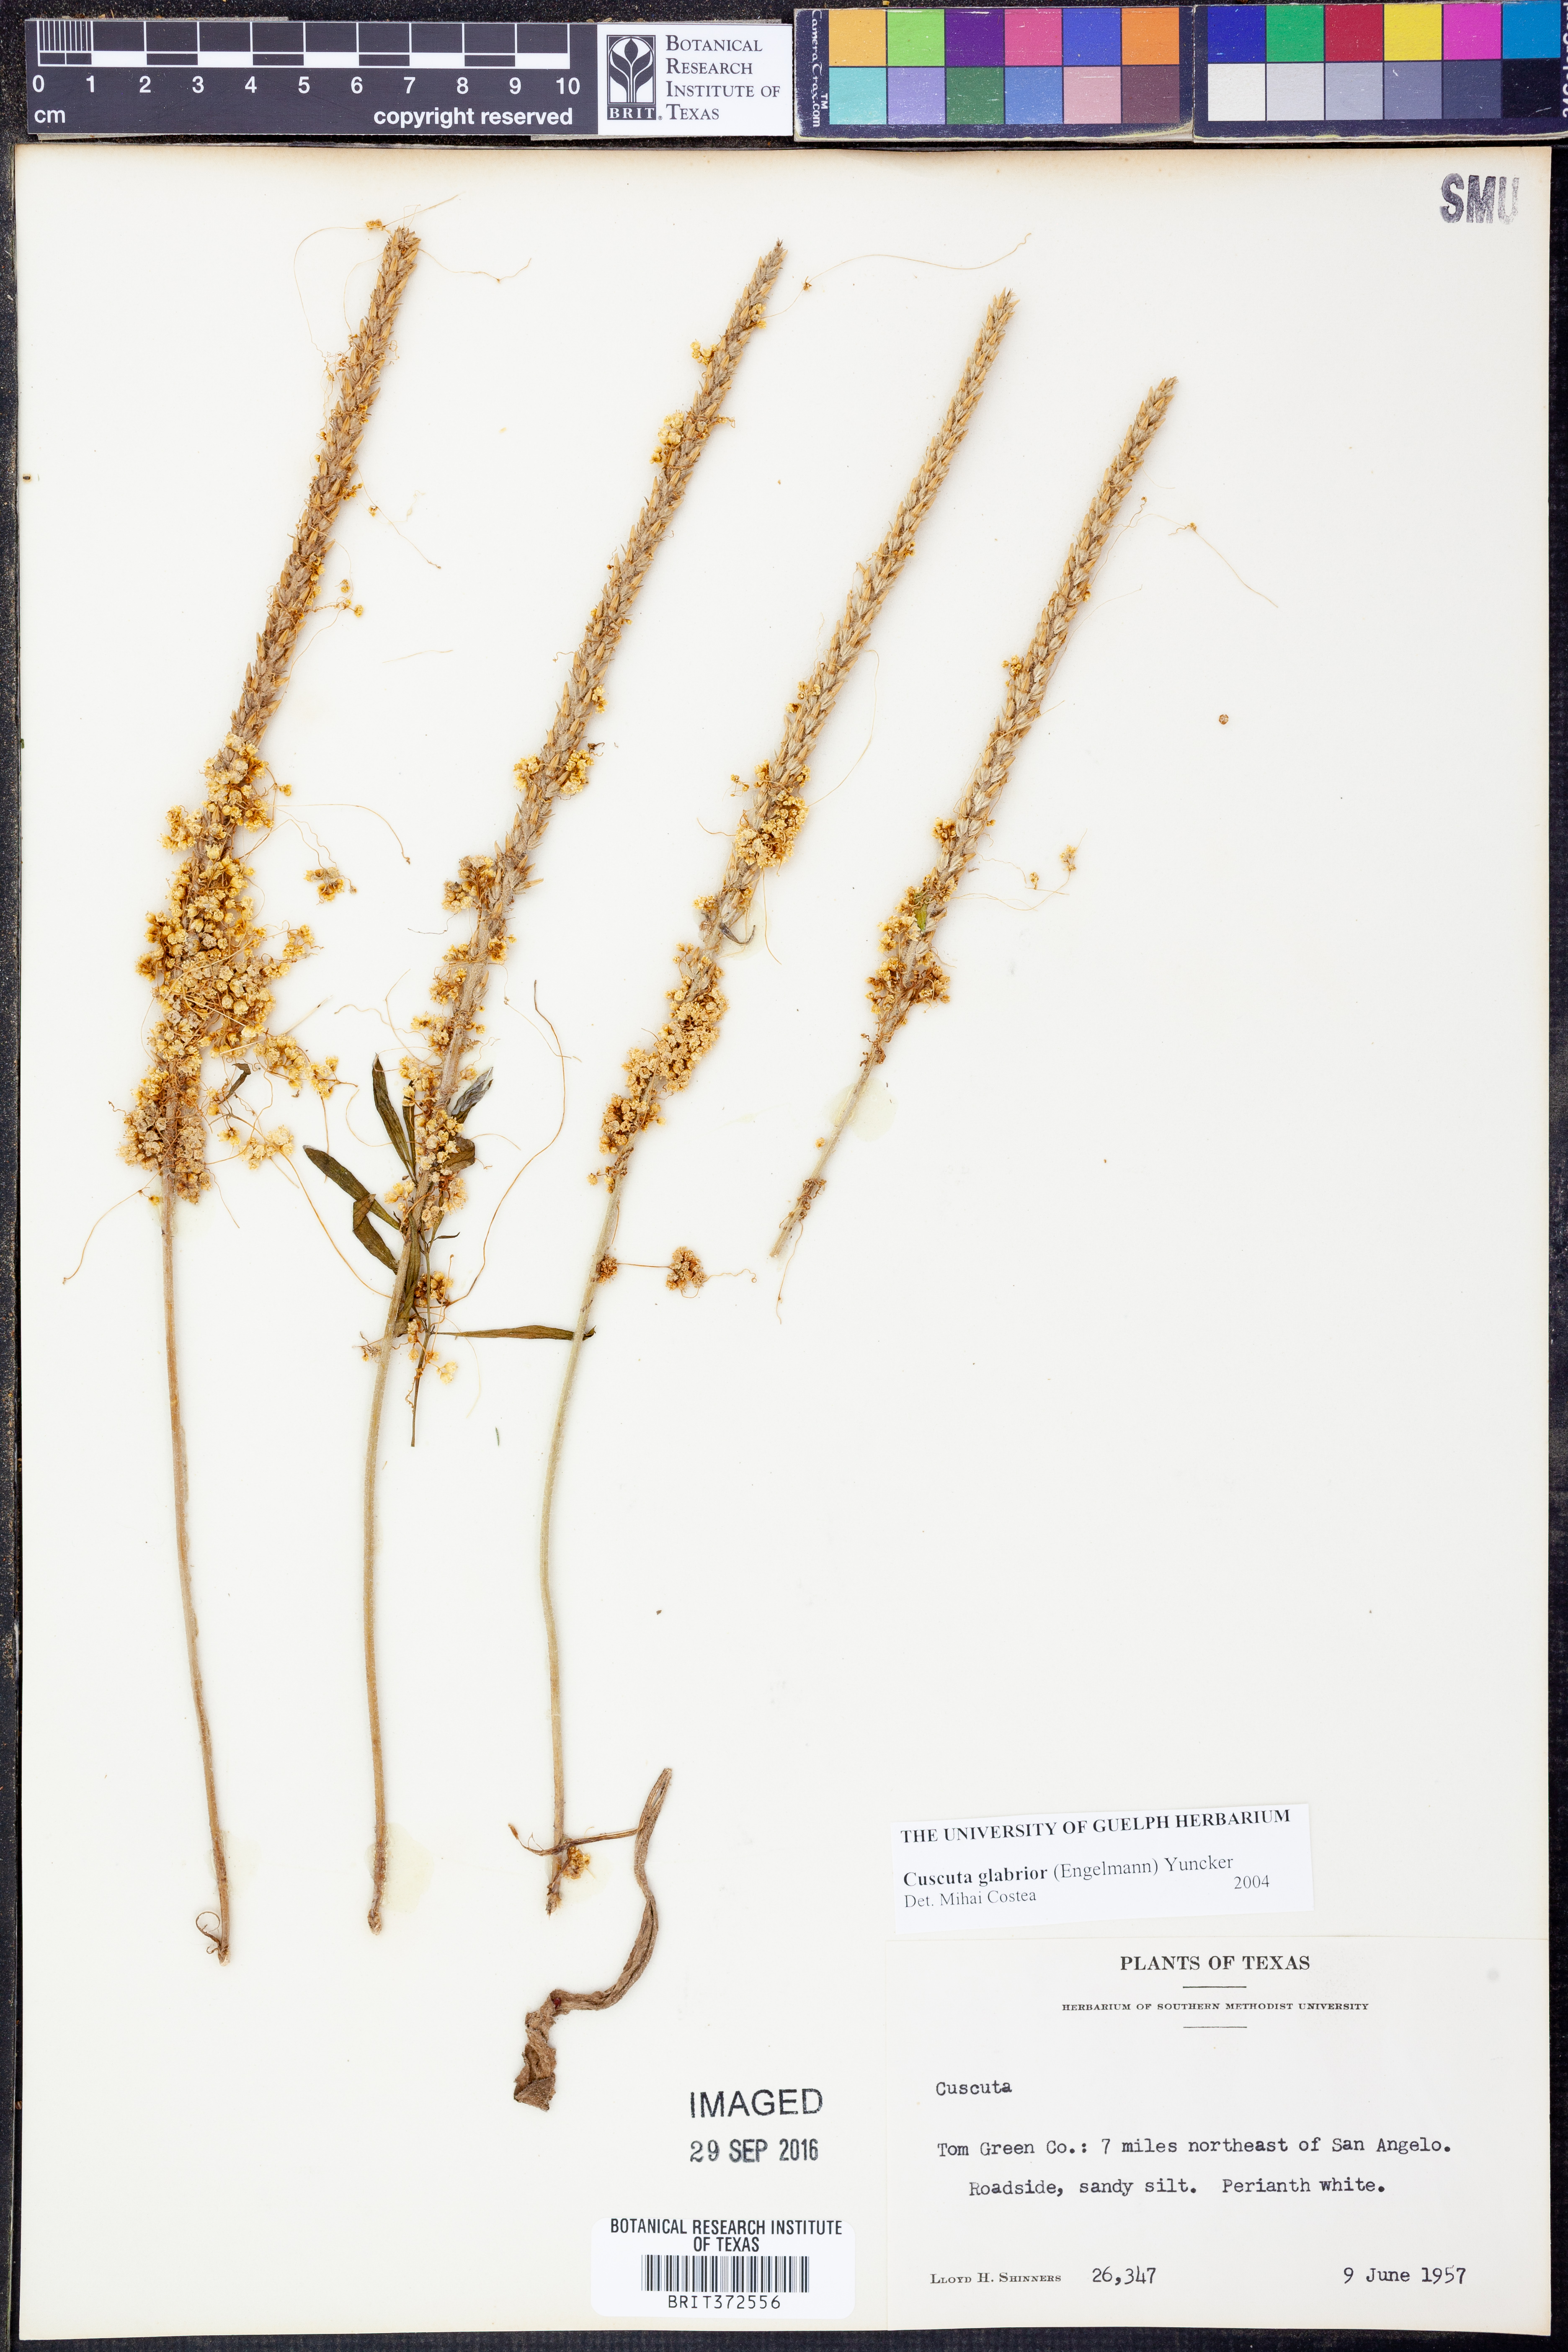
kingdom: Plantae
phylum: Tracheophyta
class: Magnoliopsida
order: Solanales
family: Convolvulaceae
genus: Cuscuta
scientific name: Cuscuta glabrior
